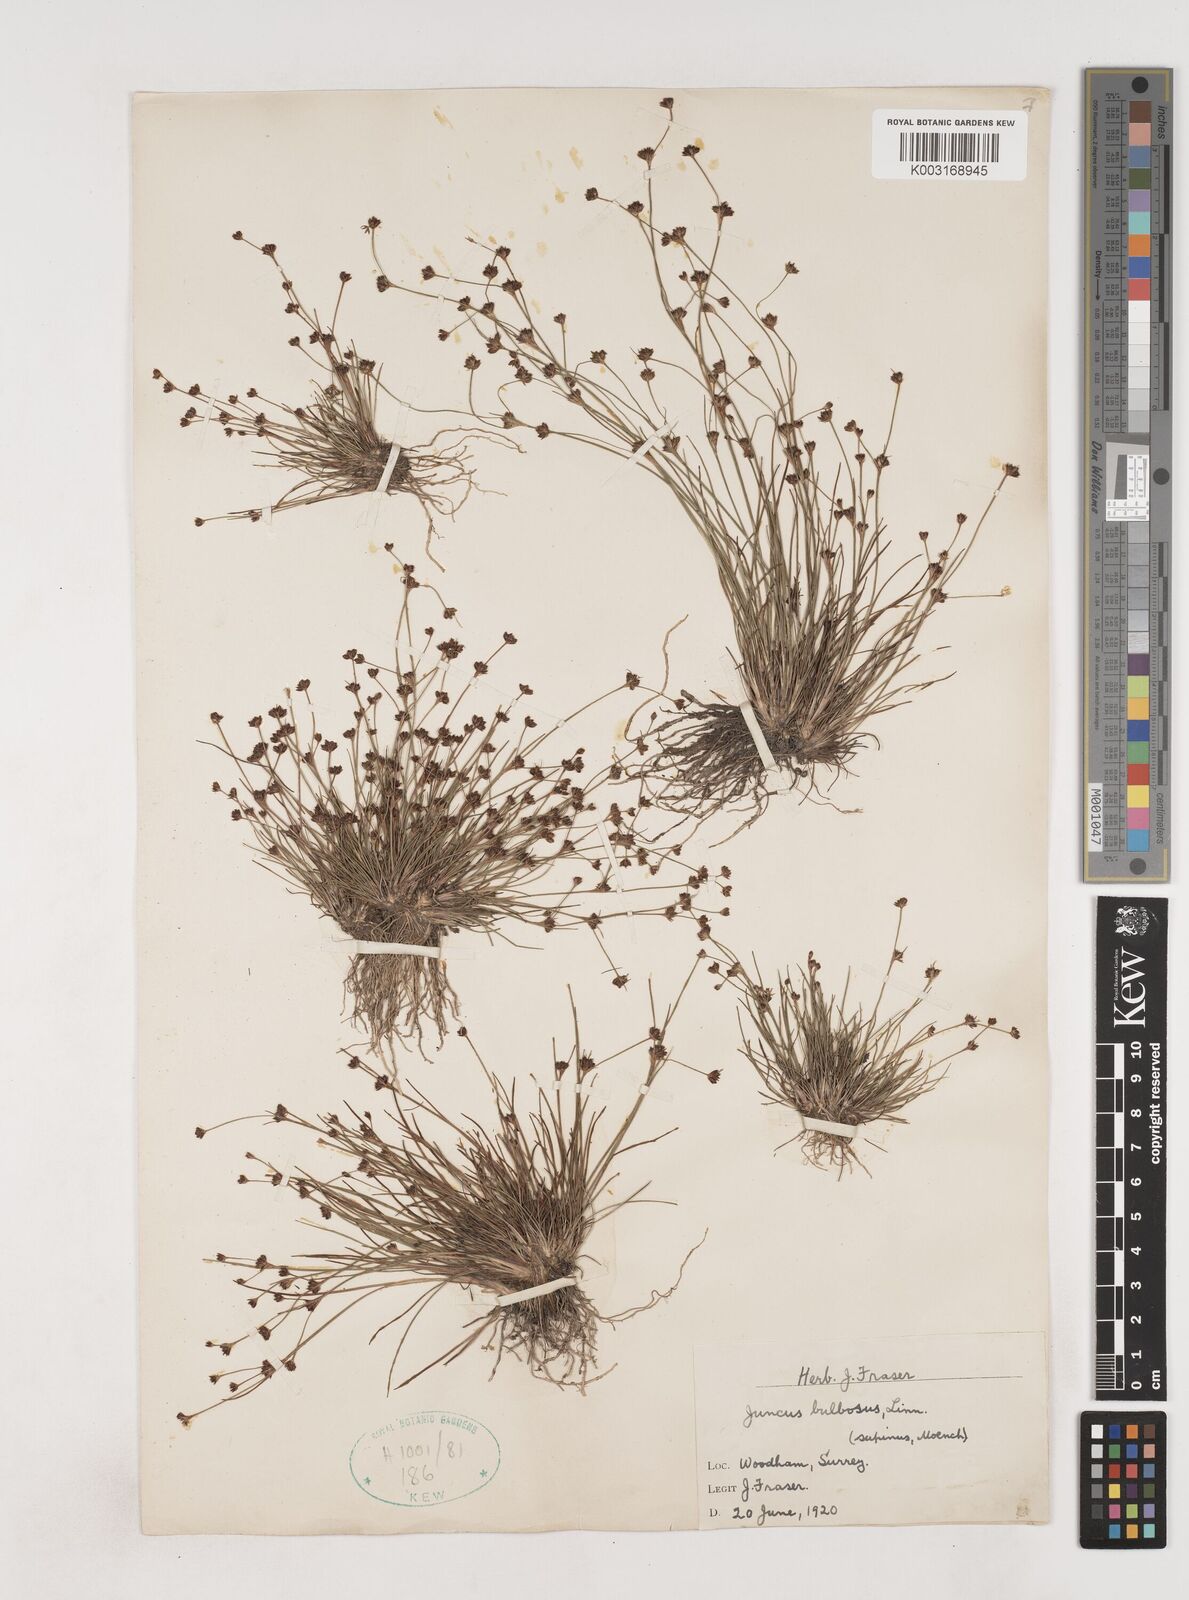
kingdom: Plantae
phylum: Tracheophyta
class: Liliopsida
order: Poales
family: Juncaceae
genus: Juncus
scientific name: Juncus bulbosus
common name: Bulbous rush
